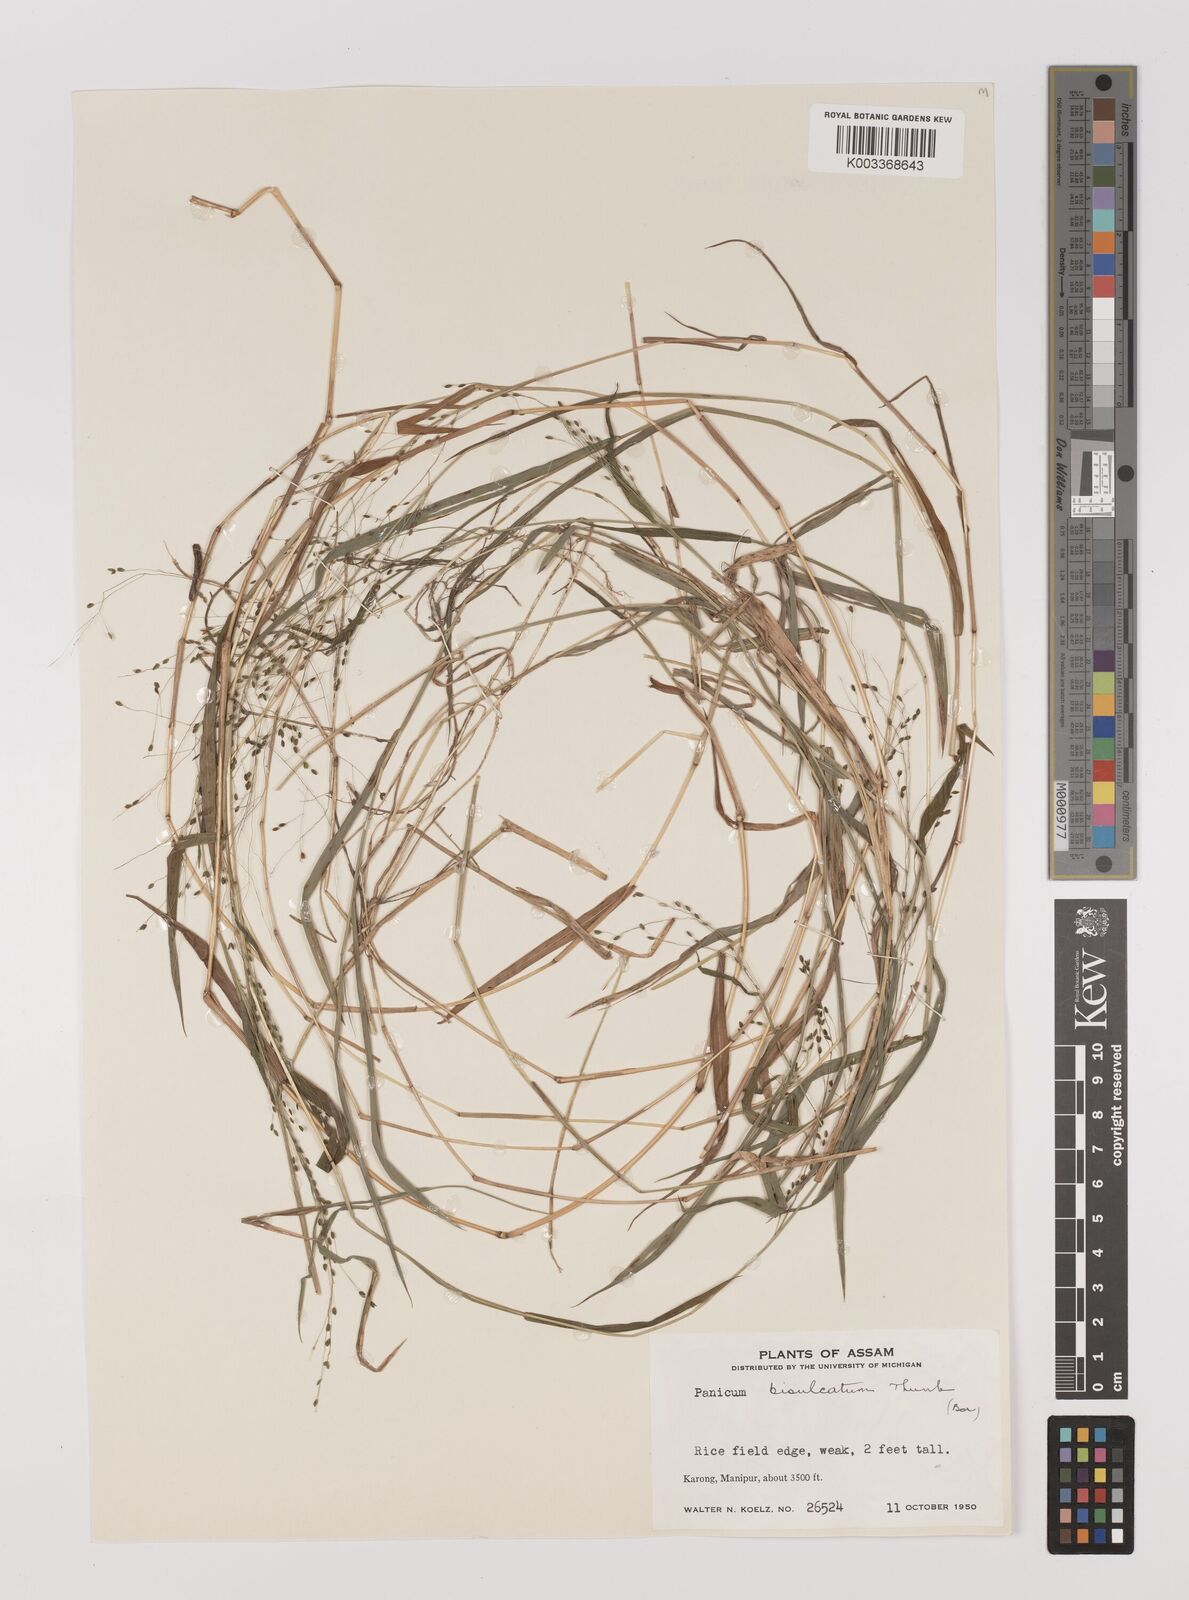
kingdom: Plantae
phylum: Tracheophyta
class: Liliopsida
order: Poales
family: Poaceae
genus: Panicum
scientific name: Panicum bisulcatum
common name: Japanese panicgrass
